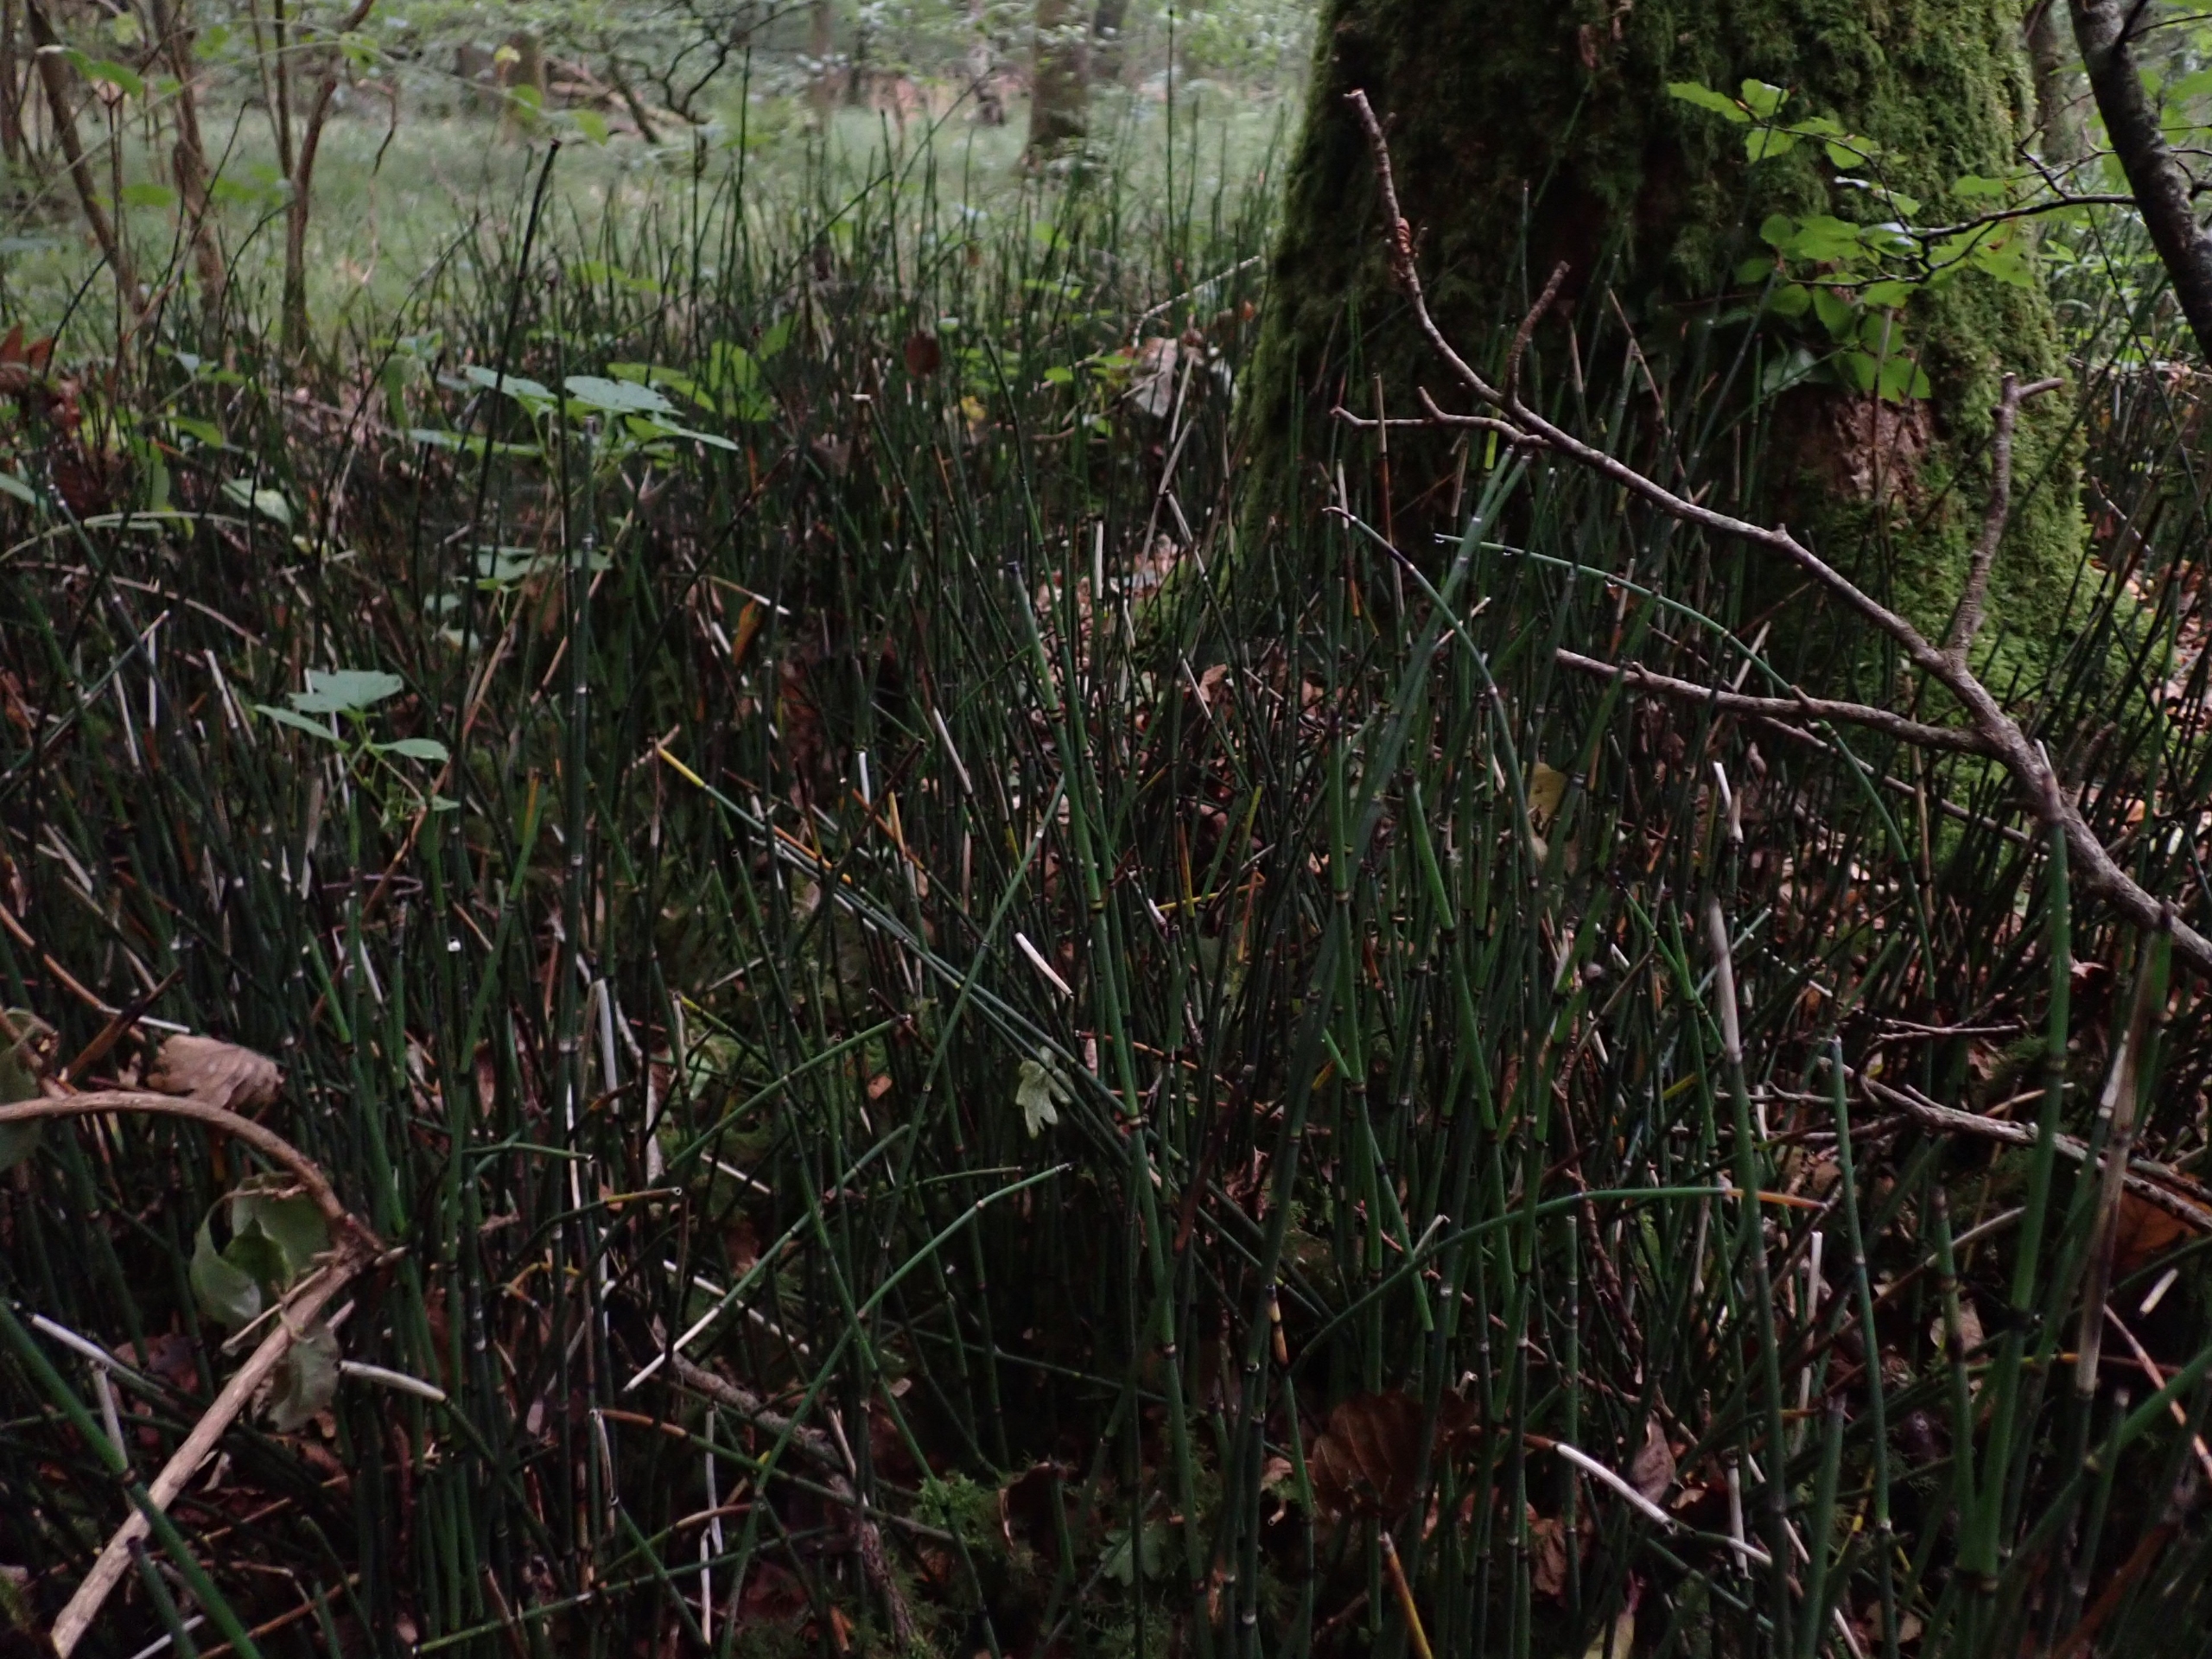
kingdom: Plantae
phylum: Tracheophyta
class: Polypodiopsida
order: Equisetales
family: Equisetaceae
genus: Equisetum
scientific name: Equisetum hyemale
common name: Skavgræs
